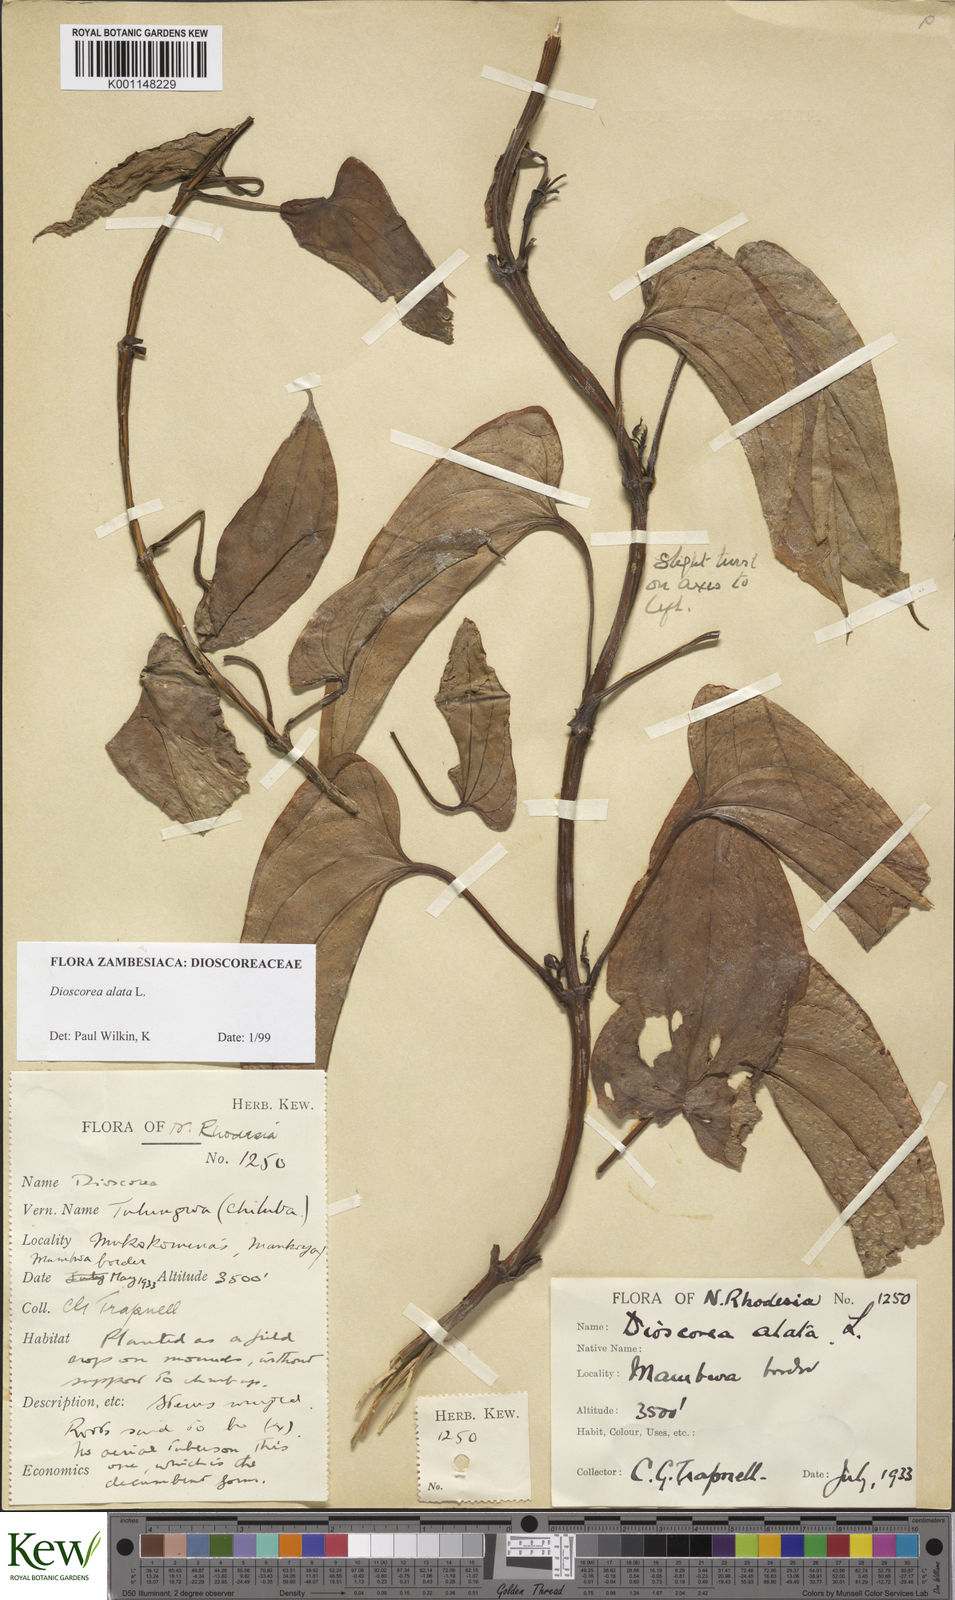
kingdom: Plantae
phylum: Tracheophyta
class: Liliopsida
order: Dioscoreales
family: Dioscoreaceae
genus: Dioscorea
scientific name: Dioscorea alata
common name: Water yam
